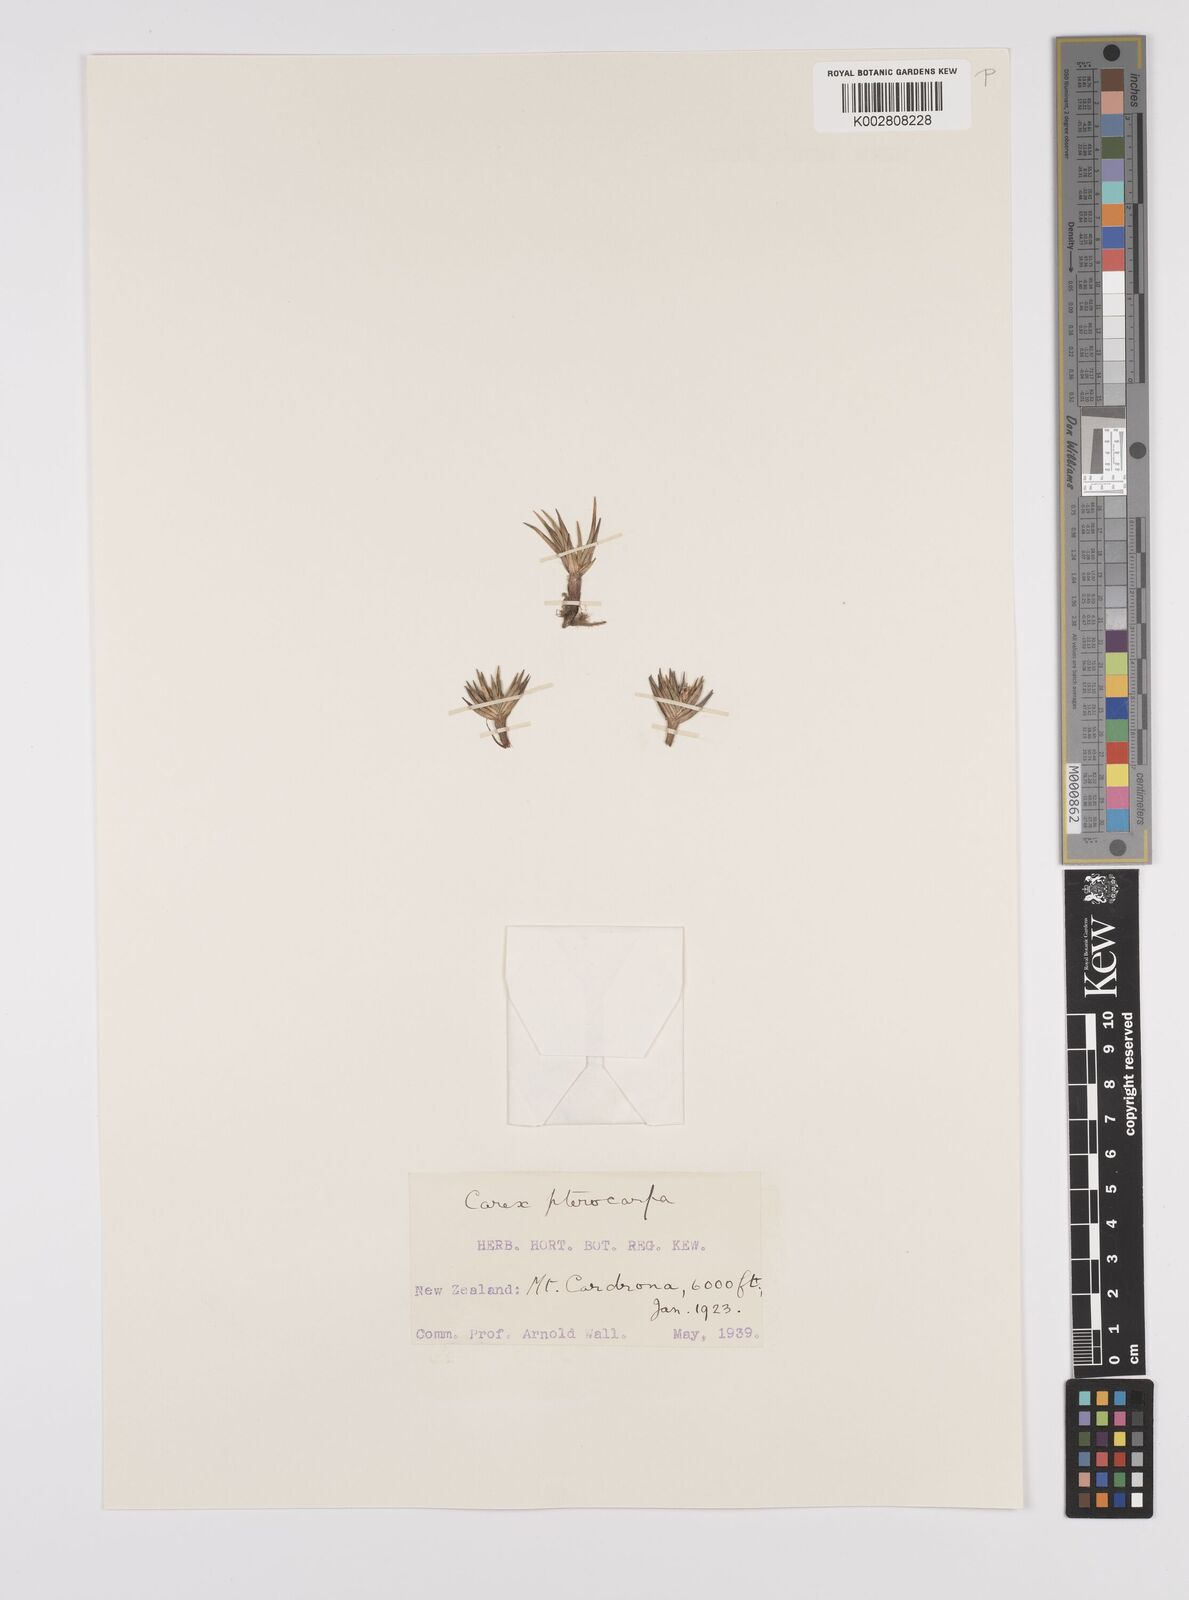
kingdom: Plantae
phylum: Tracheophyta
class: Liliopsida
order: Poales
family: Cyperaceae
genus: Carex
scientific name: Carex pterocarpa
